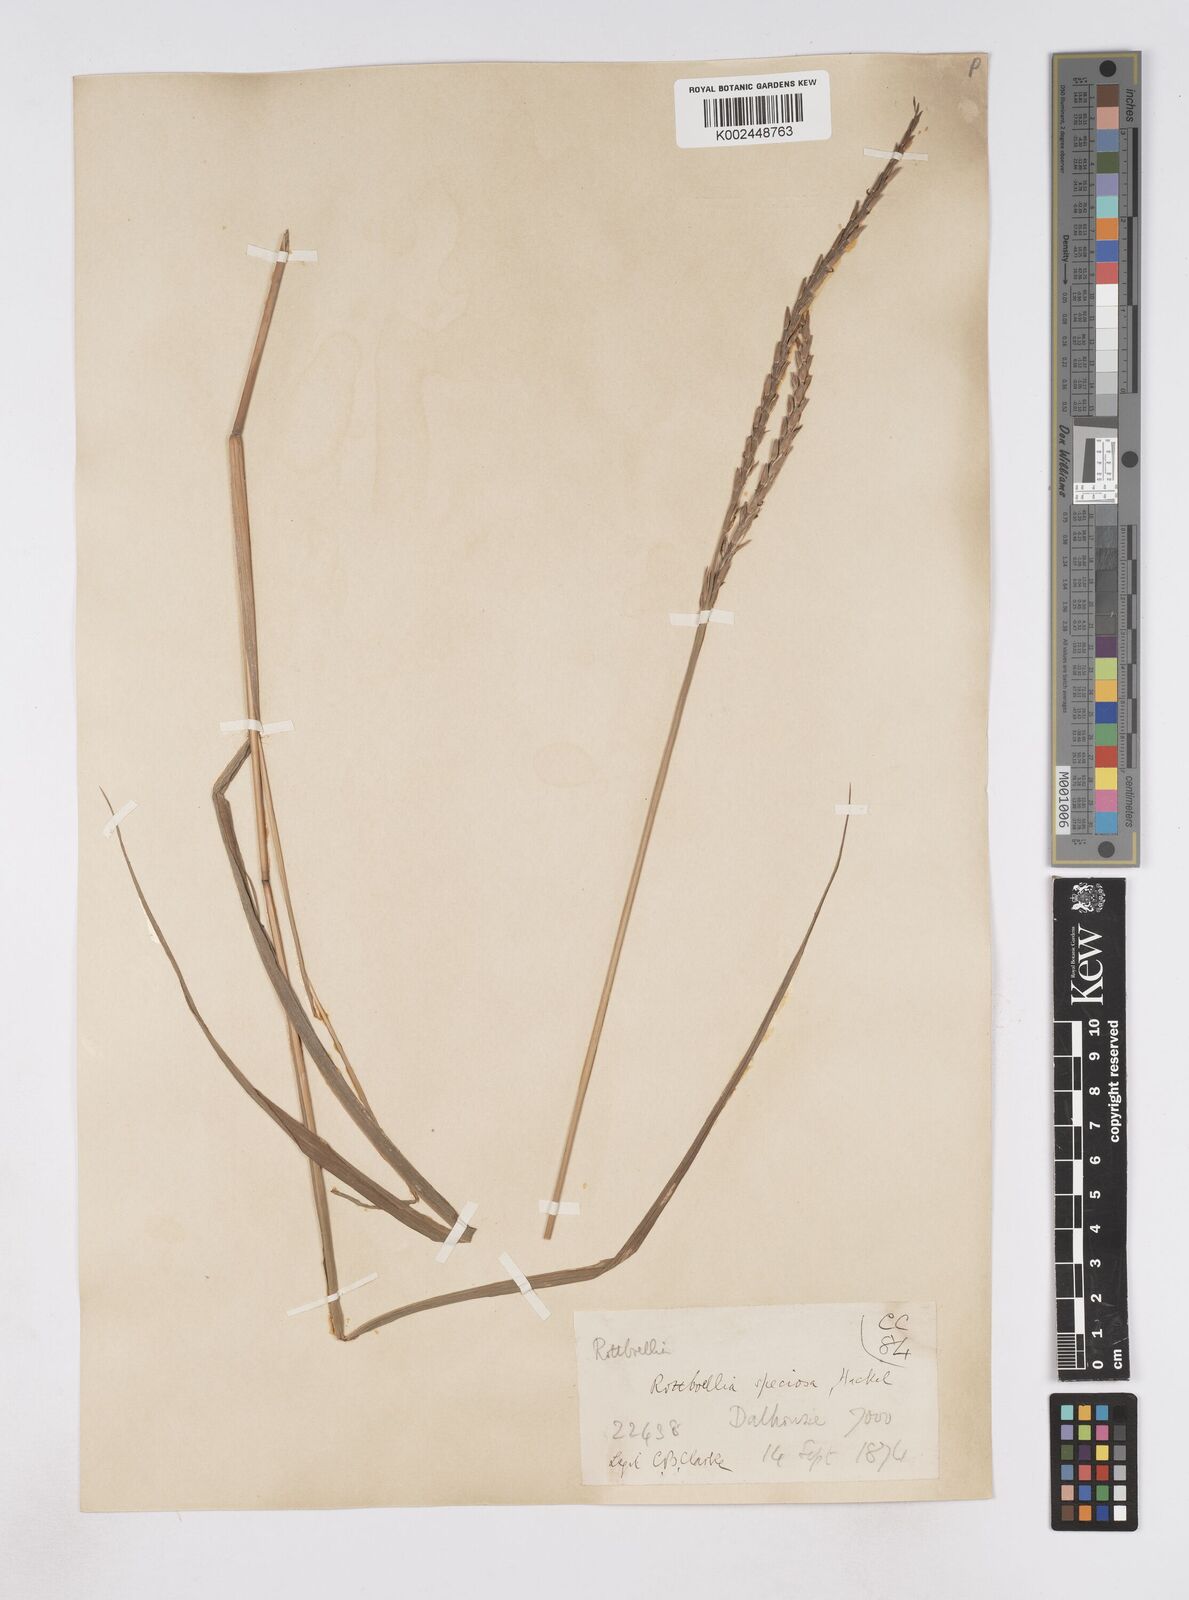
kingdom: Plantae
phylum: Tracheophyta
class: Liliopsida
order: Poales
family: Poaceae
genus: Phacelurus
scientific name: Phacelurus speciosus
